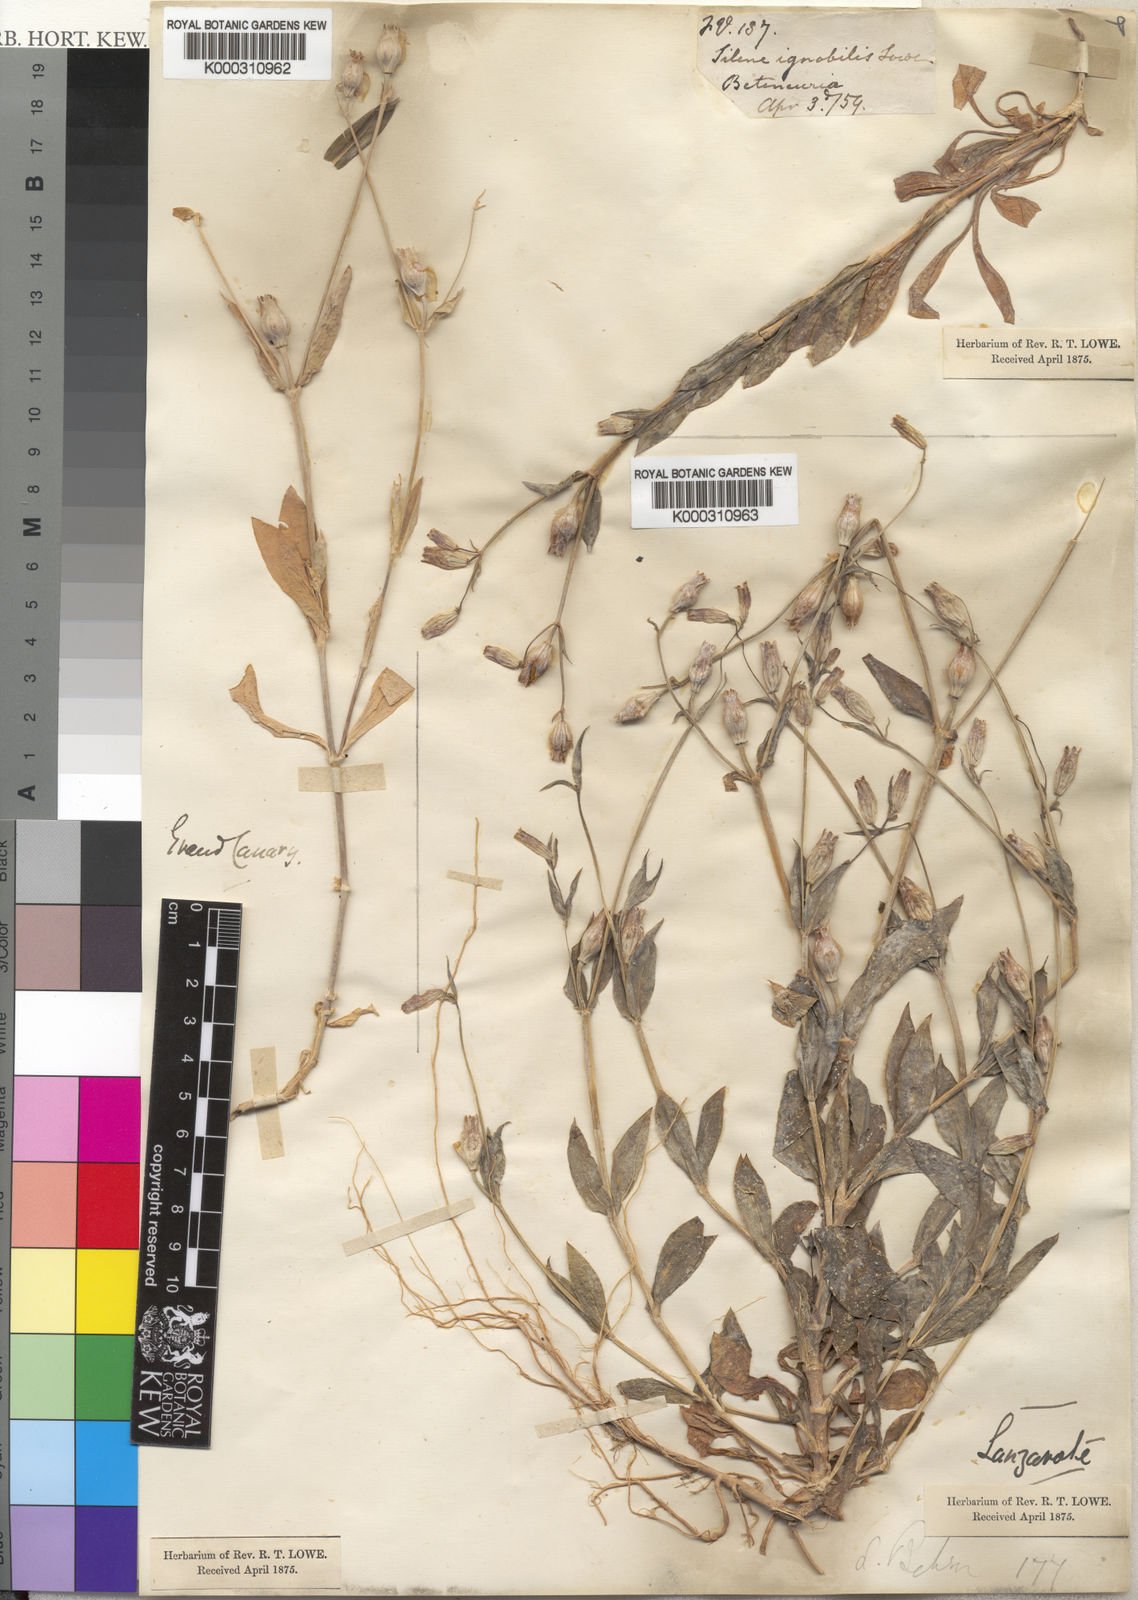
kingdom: Plantae
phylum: Tracheophyta
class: Magnoliopsida
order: Caryophyllales
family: Caryophyllaceae
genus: Silene
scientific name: Silene behen
